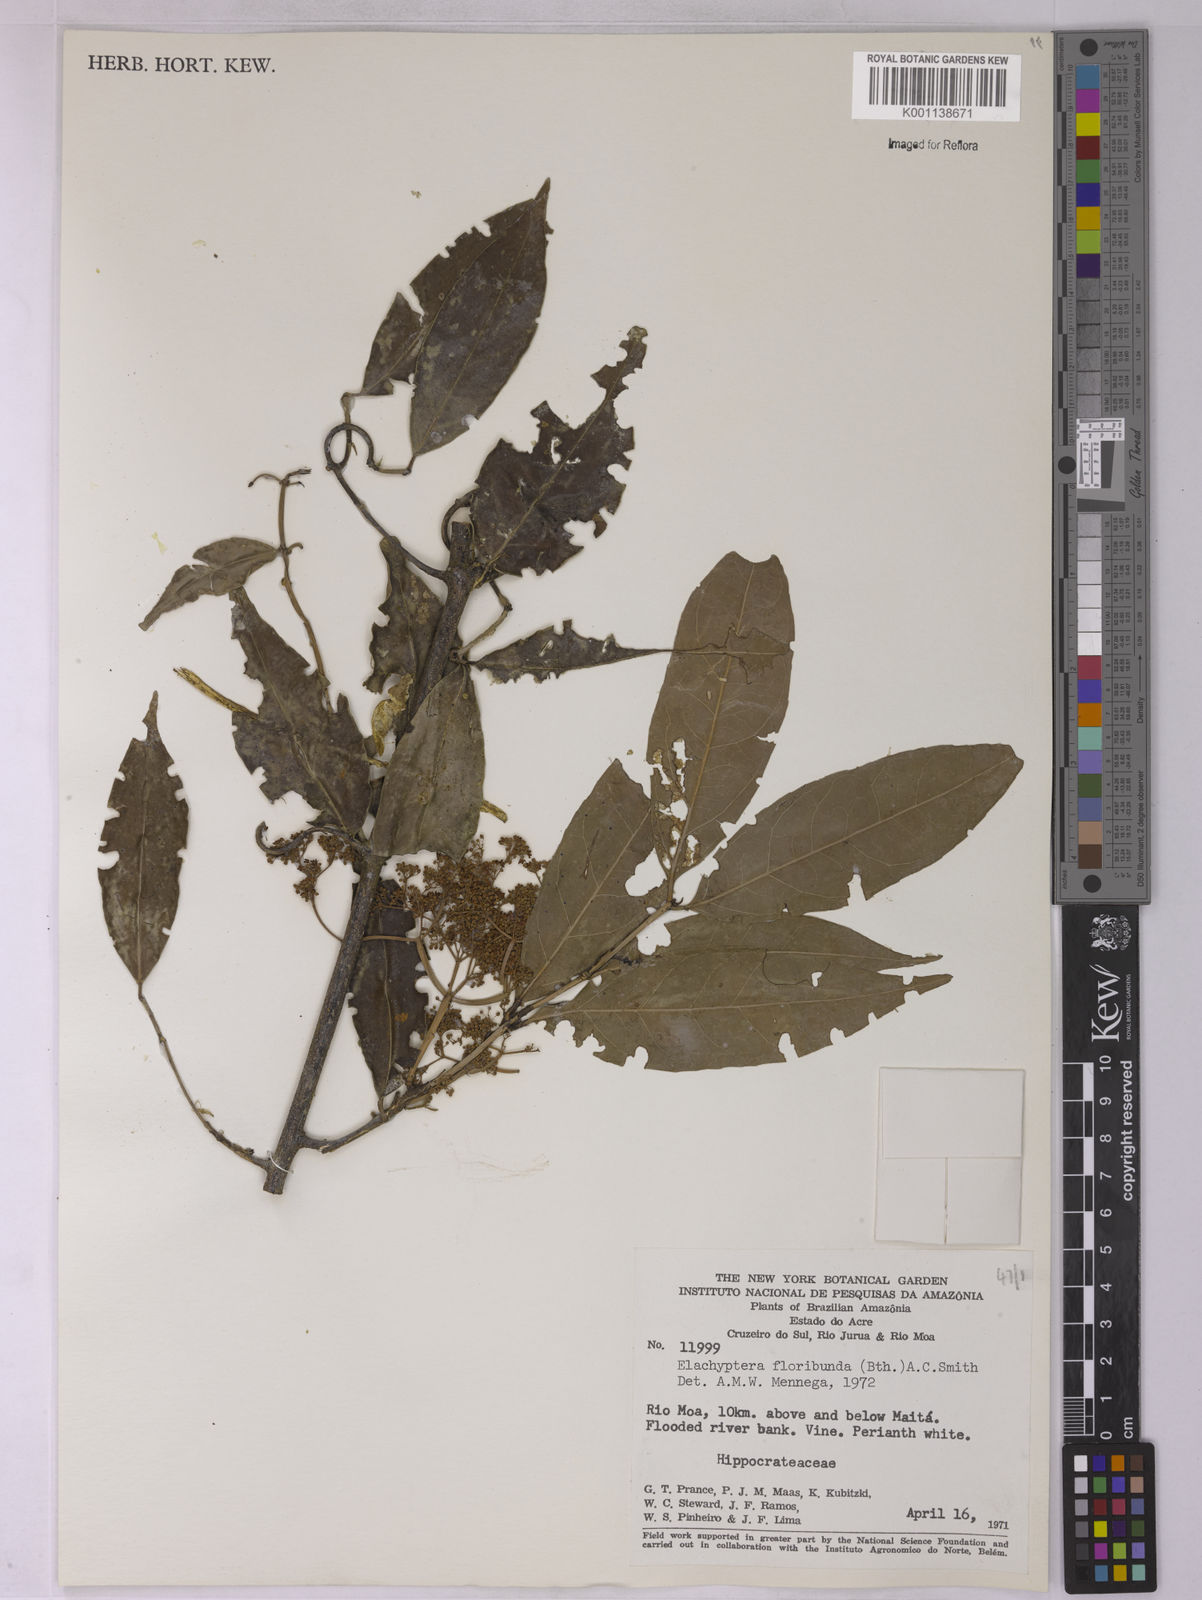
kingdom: Plantae
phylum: Tracheophyta
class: Magnoliopsida
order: Celastrales
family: Celastraceae
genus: Elachyptera
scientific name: Elachyptera floribunda
